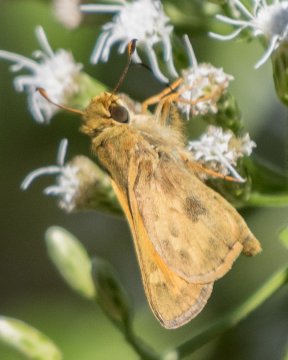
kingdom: Animalia
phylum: Arthropoda
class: Insecta
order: Lepidoptera
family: Hesperiidae
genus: Atalopedes
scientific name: Atalopedes campestris
